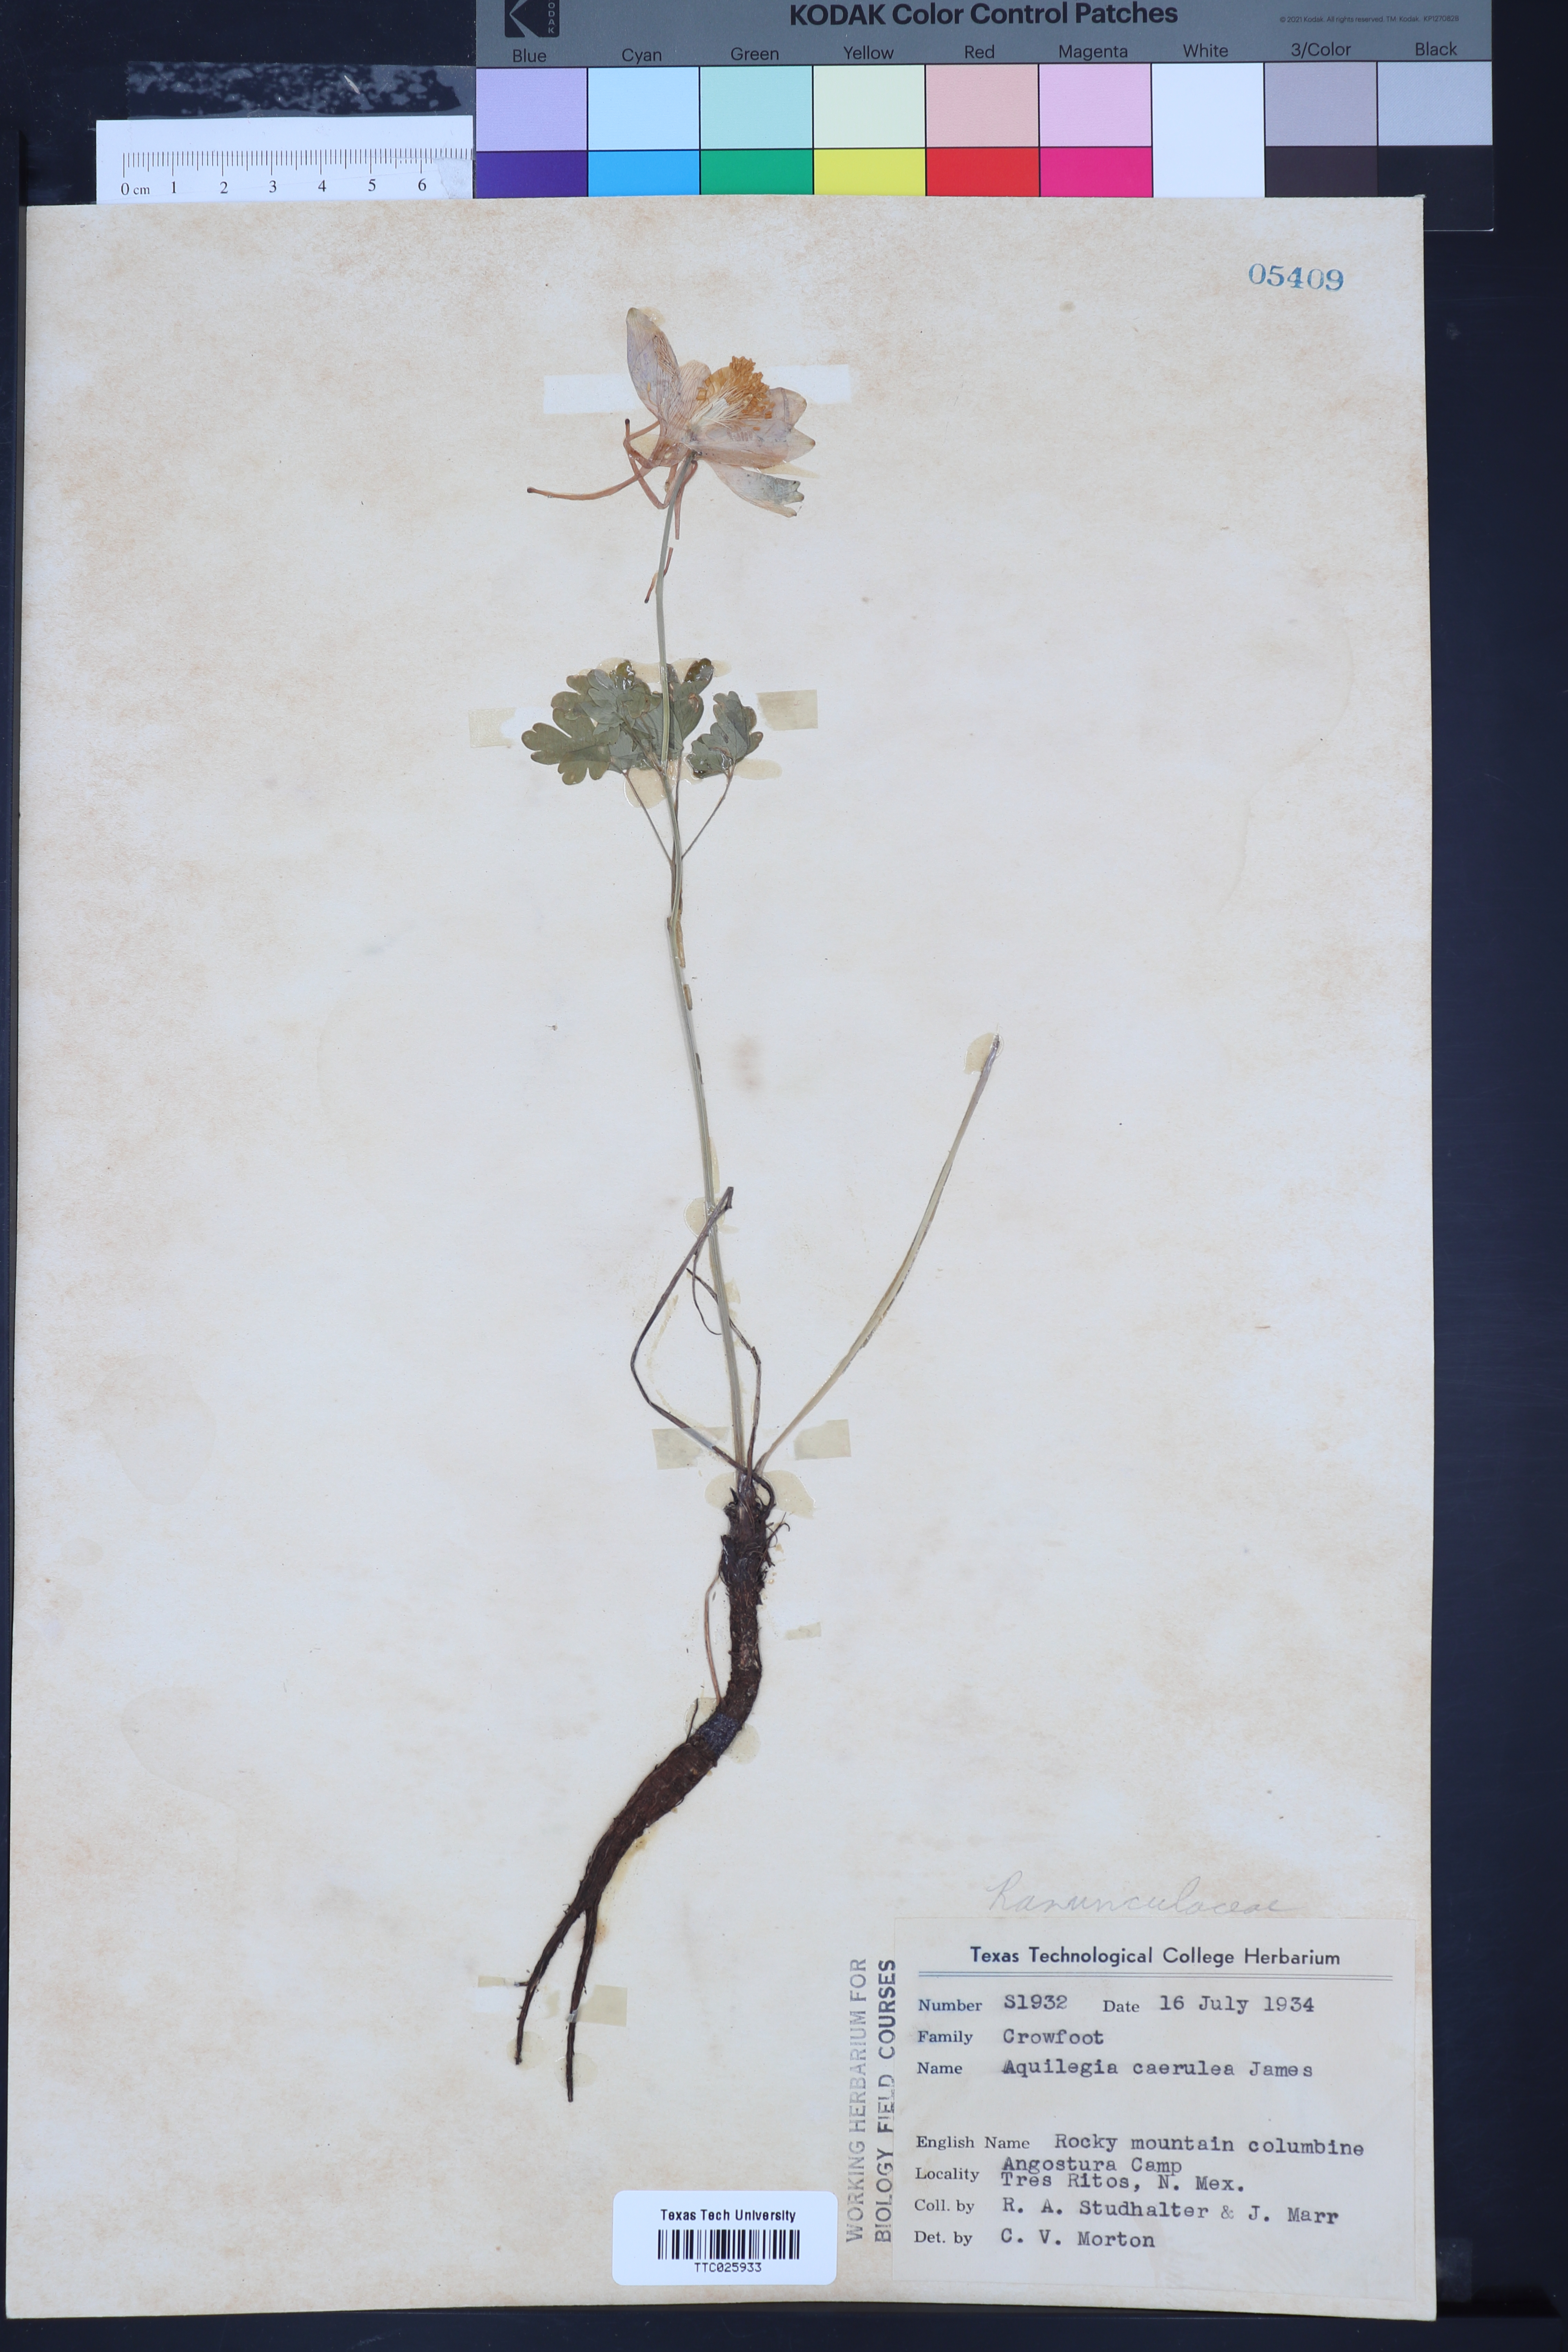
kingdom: Plantae
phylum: Tracheophyta
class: Magnoliopsida
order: Ranunculales
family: Ranunculaceae
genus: Aquilegia
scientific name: Aquilegia coerulea
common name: Rocky mountain columbine
